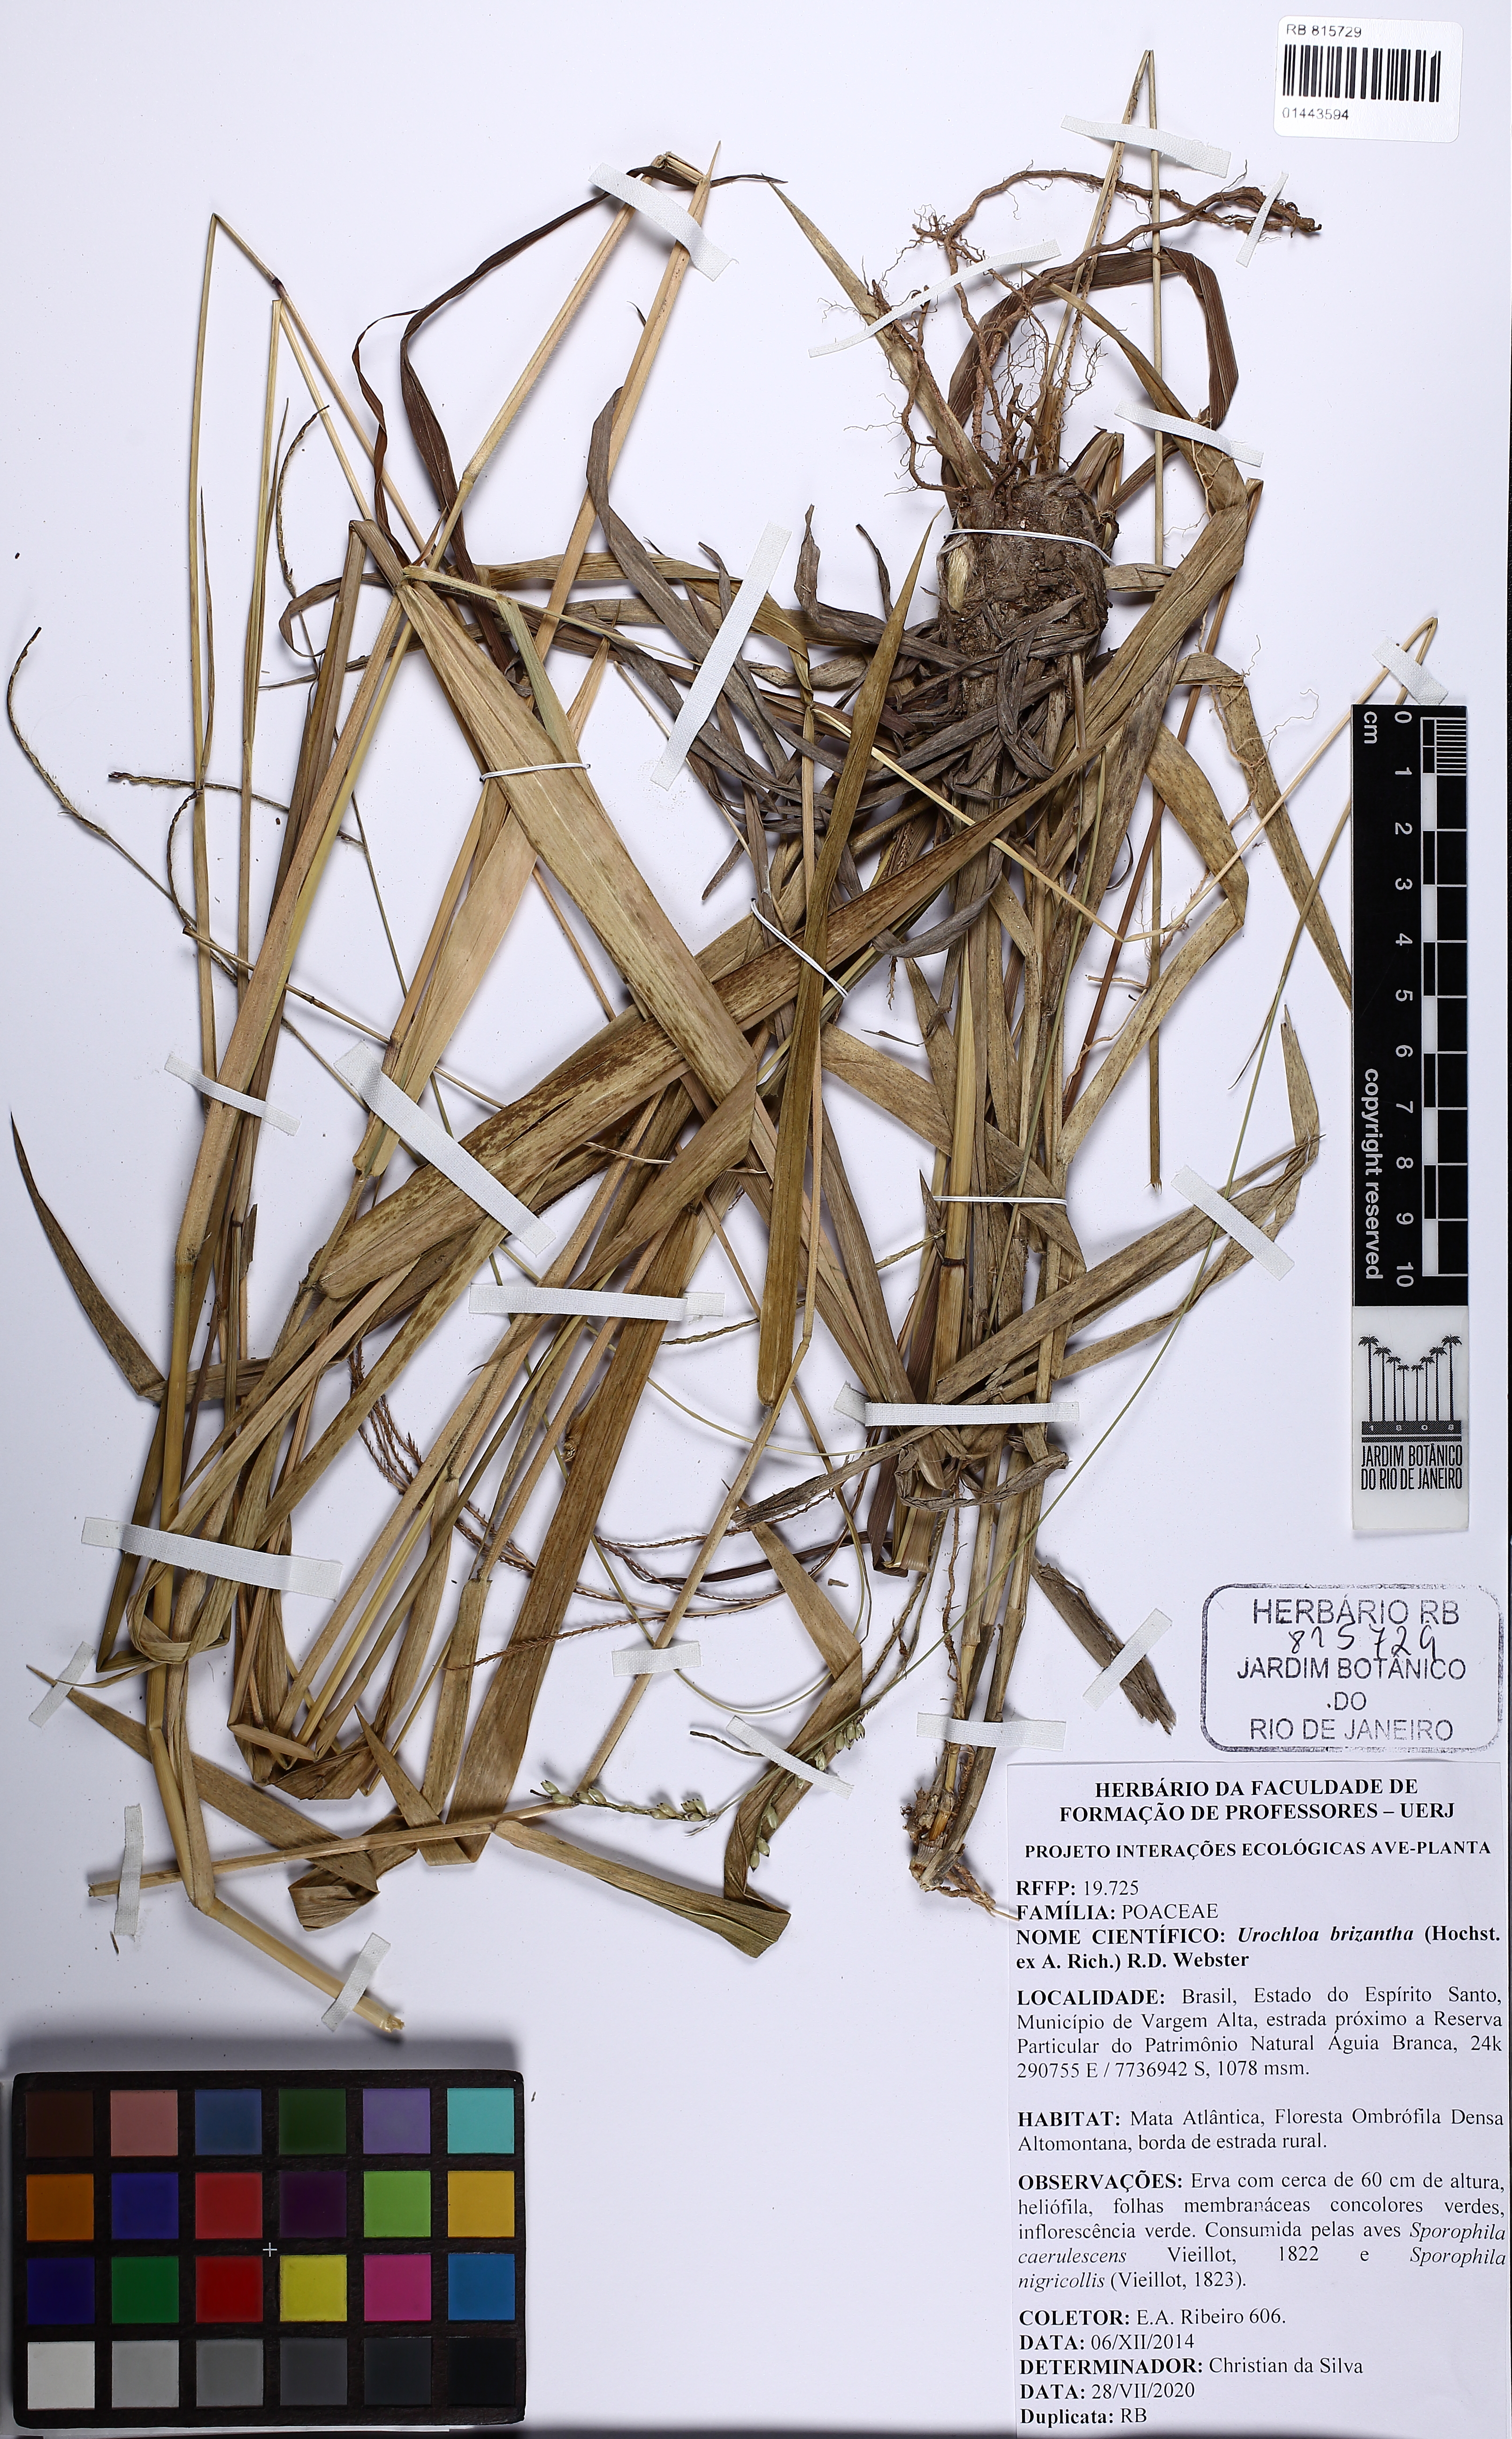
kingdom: Plantae
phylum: Tracheophyta
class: Liliopsida
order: Poales
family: Poaceae
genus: Urochloa
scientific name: Urochloa brizantha
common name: Palisade signalgrass
